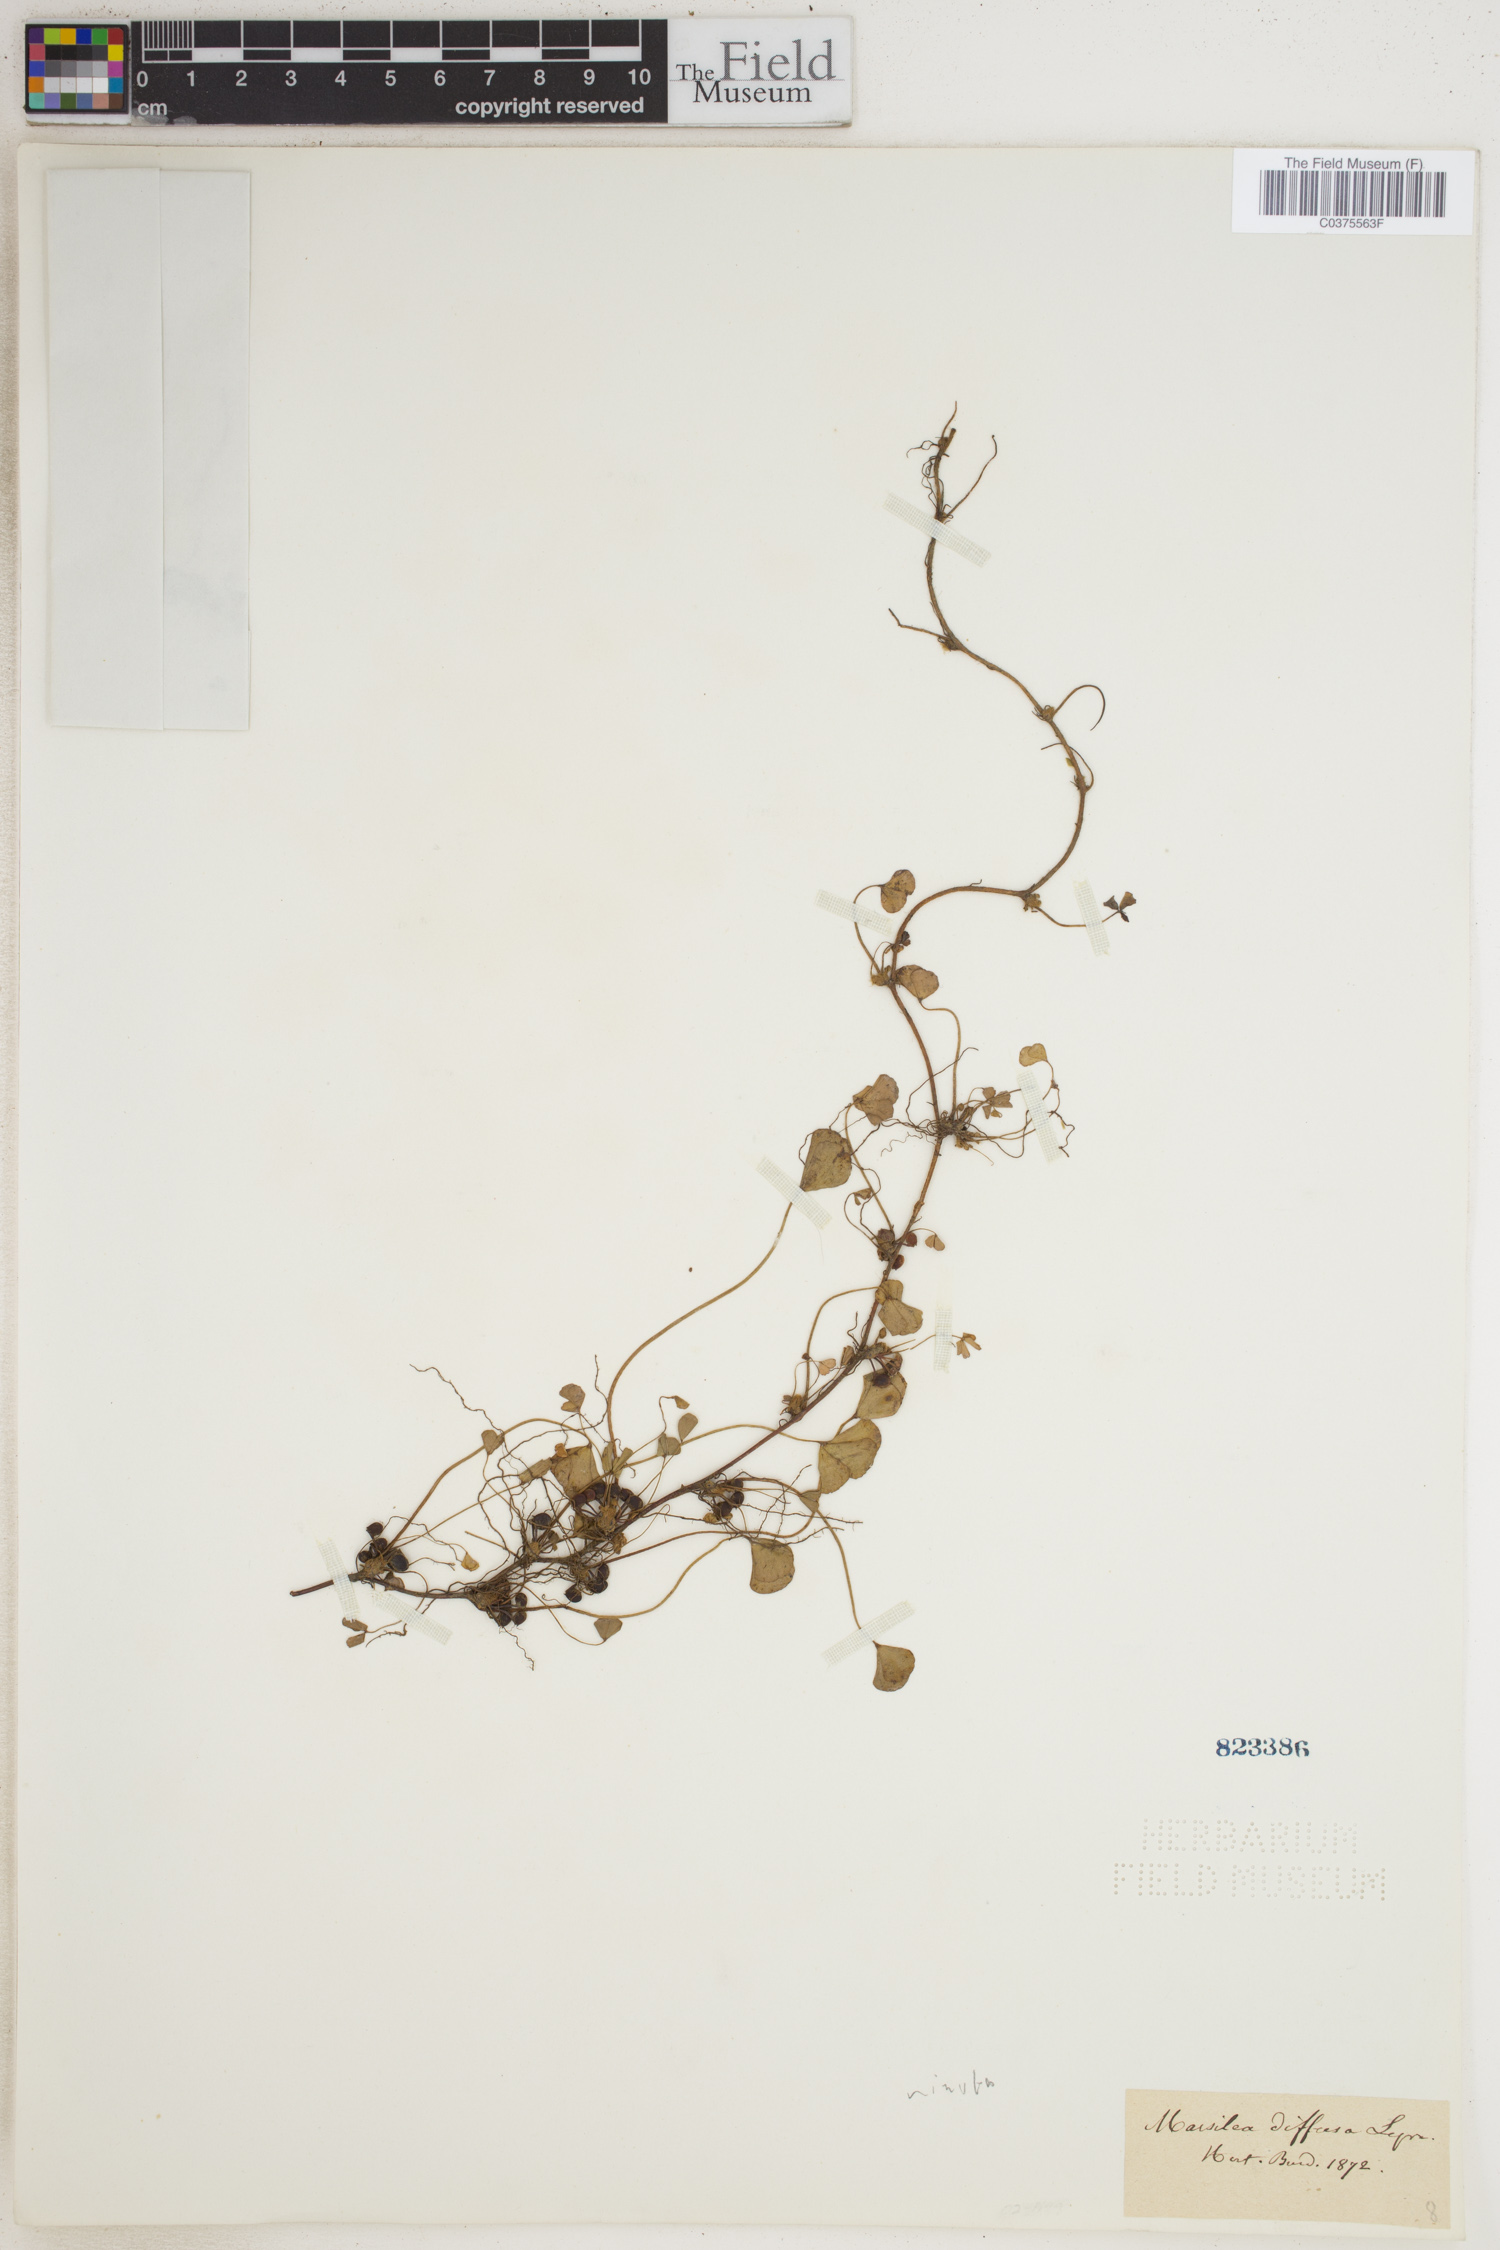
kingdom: Plantae
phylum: Tracheophyta
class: Polypodiopsida
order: Salviniales
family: Marsileaceae
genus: Marsilea
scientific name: Marsilea minuta
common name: Dwarf waterclover
